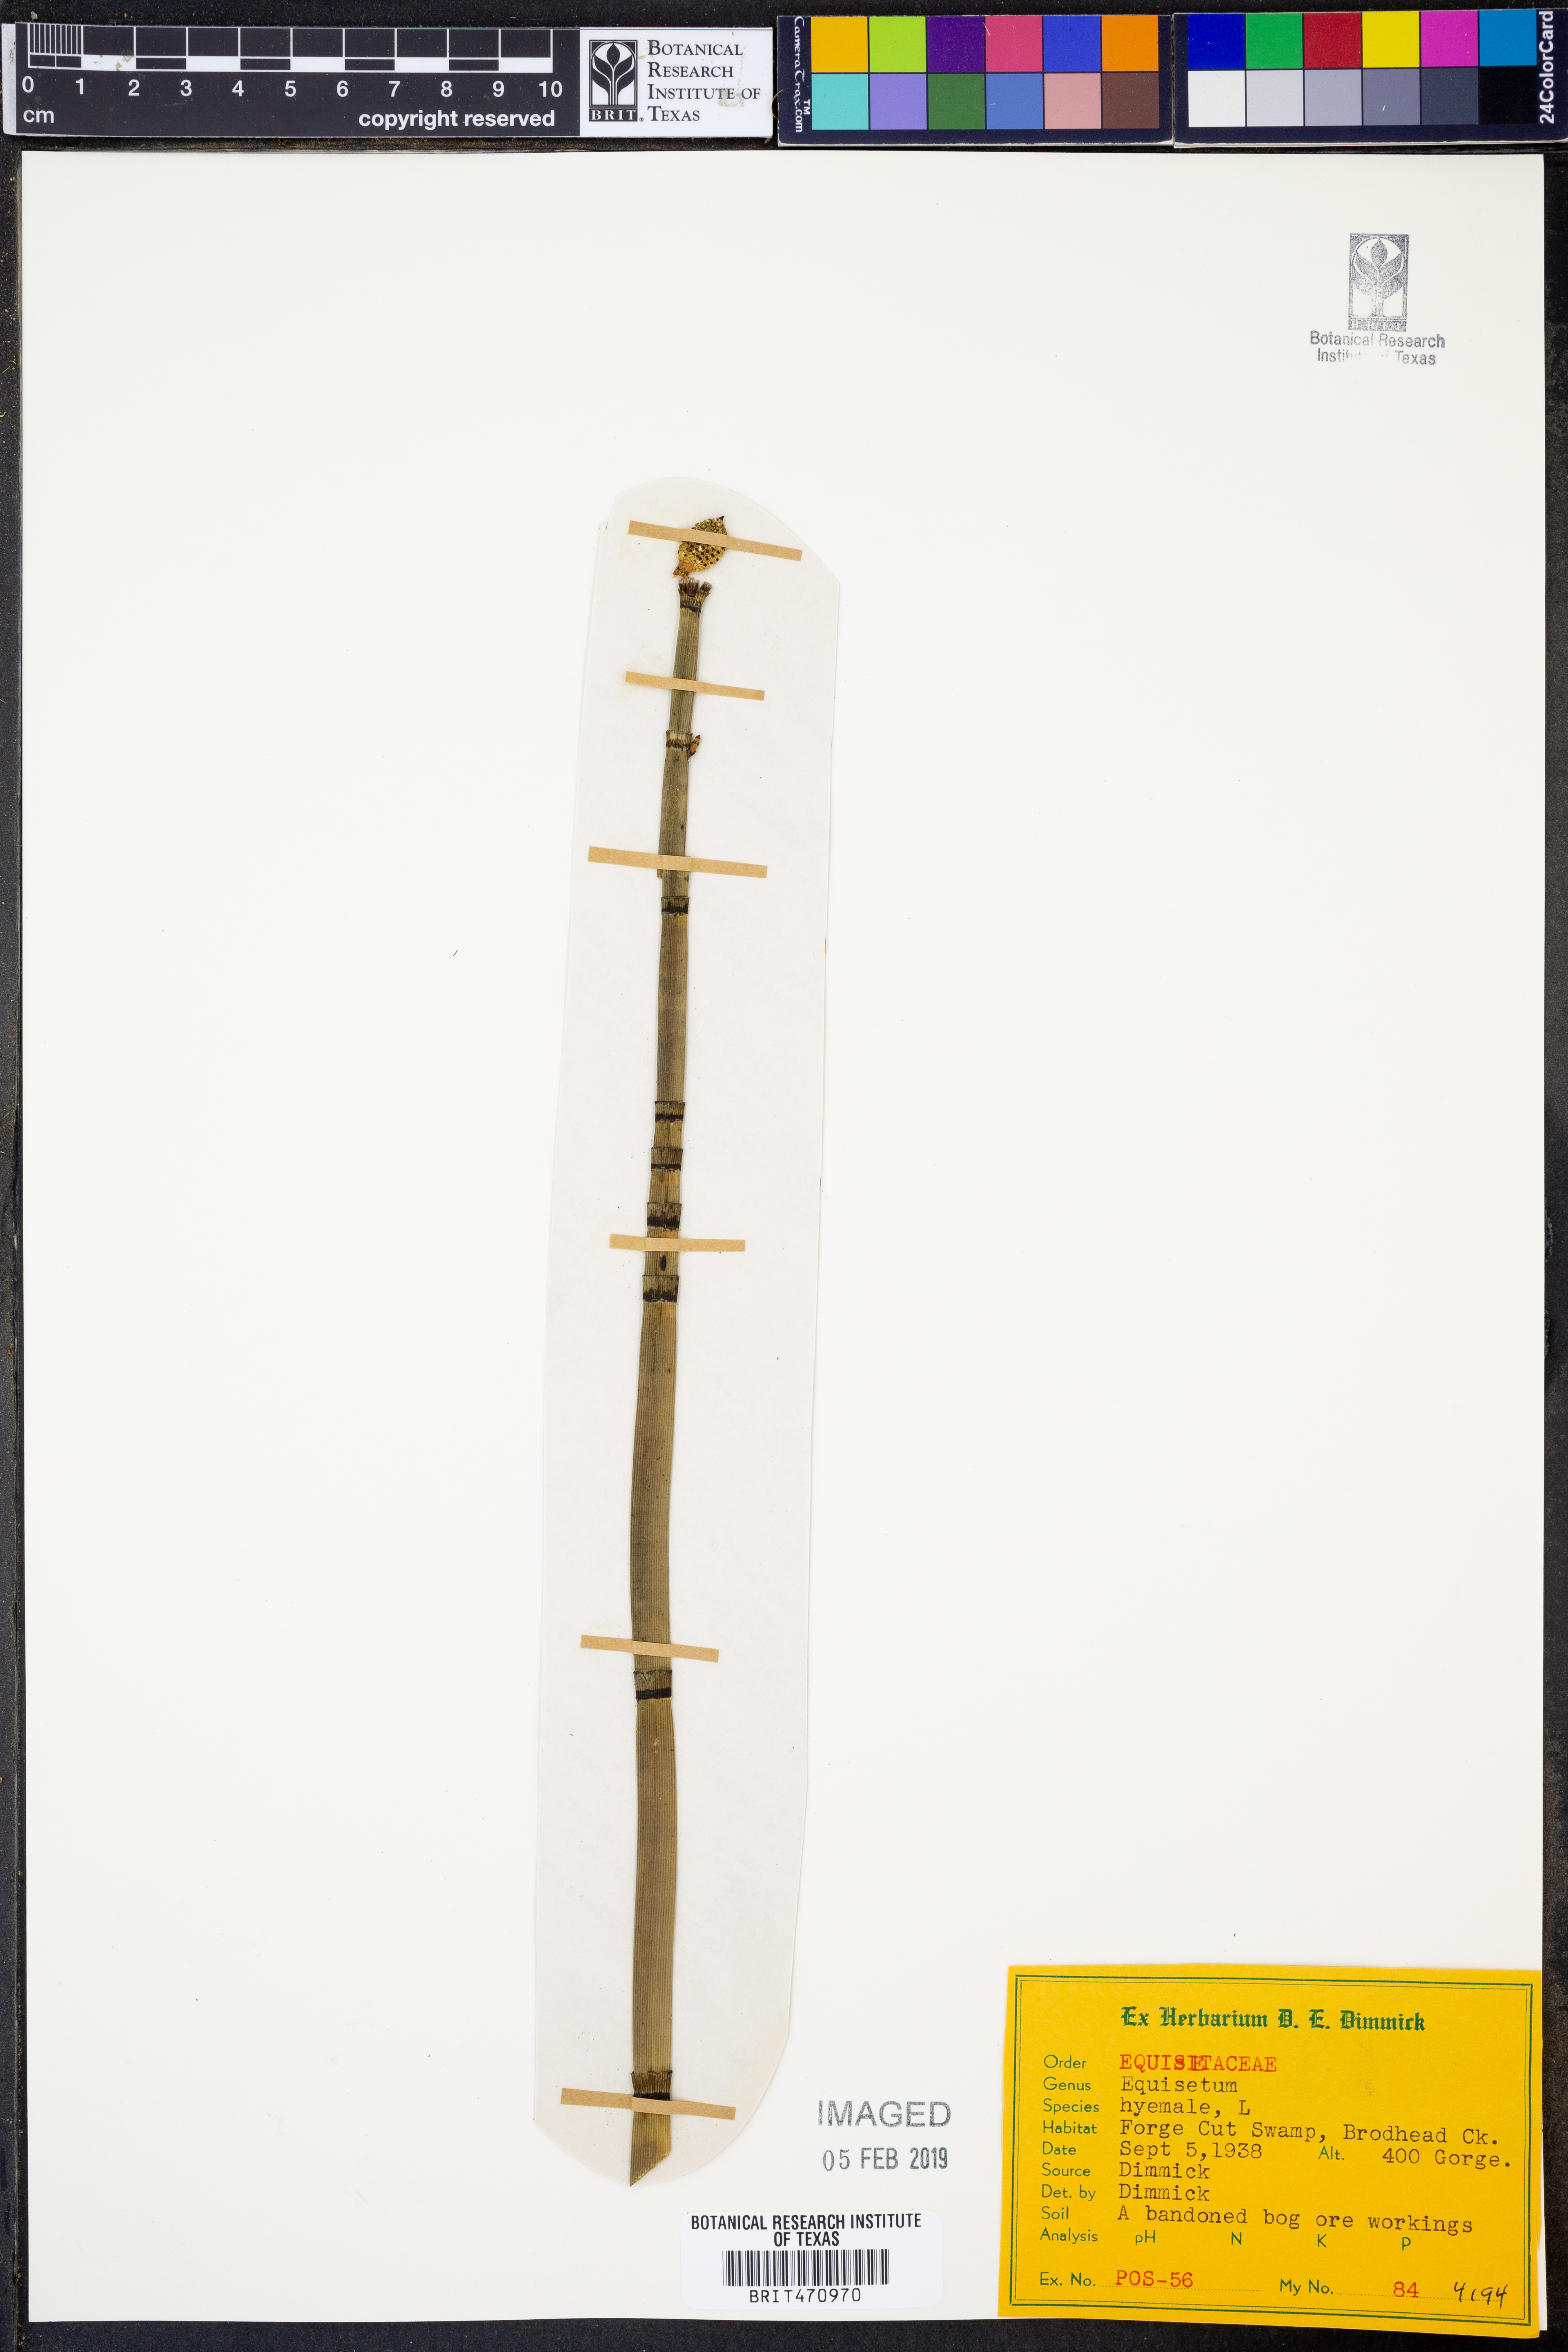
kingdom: Plantae
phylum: Tracheophyta
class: Polypodiopsida
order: Equisetales
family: Equisetaceae
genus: Equisetum
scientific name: Equisetum hyemale
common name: Rough horsetail
